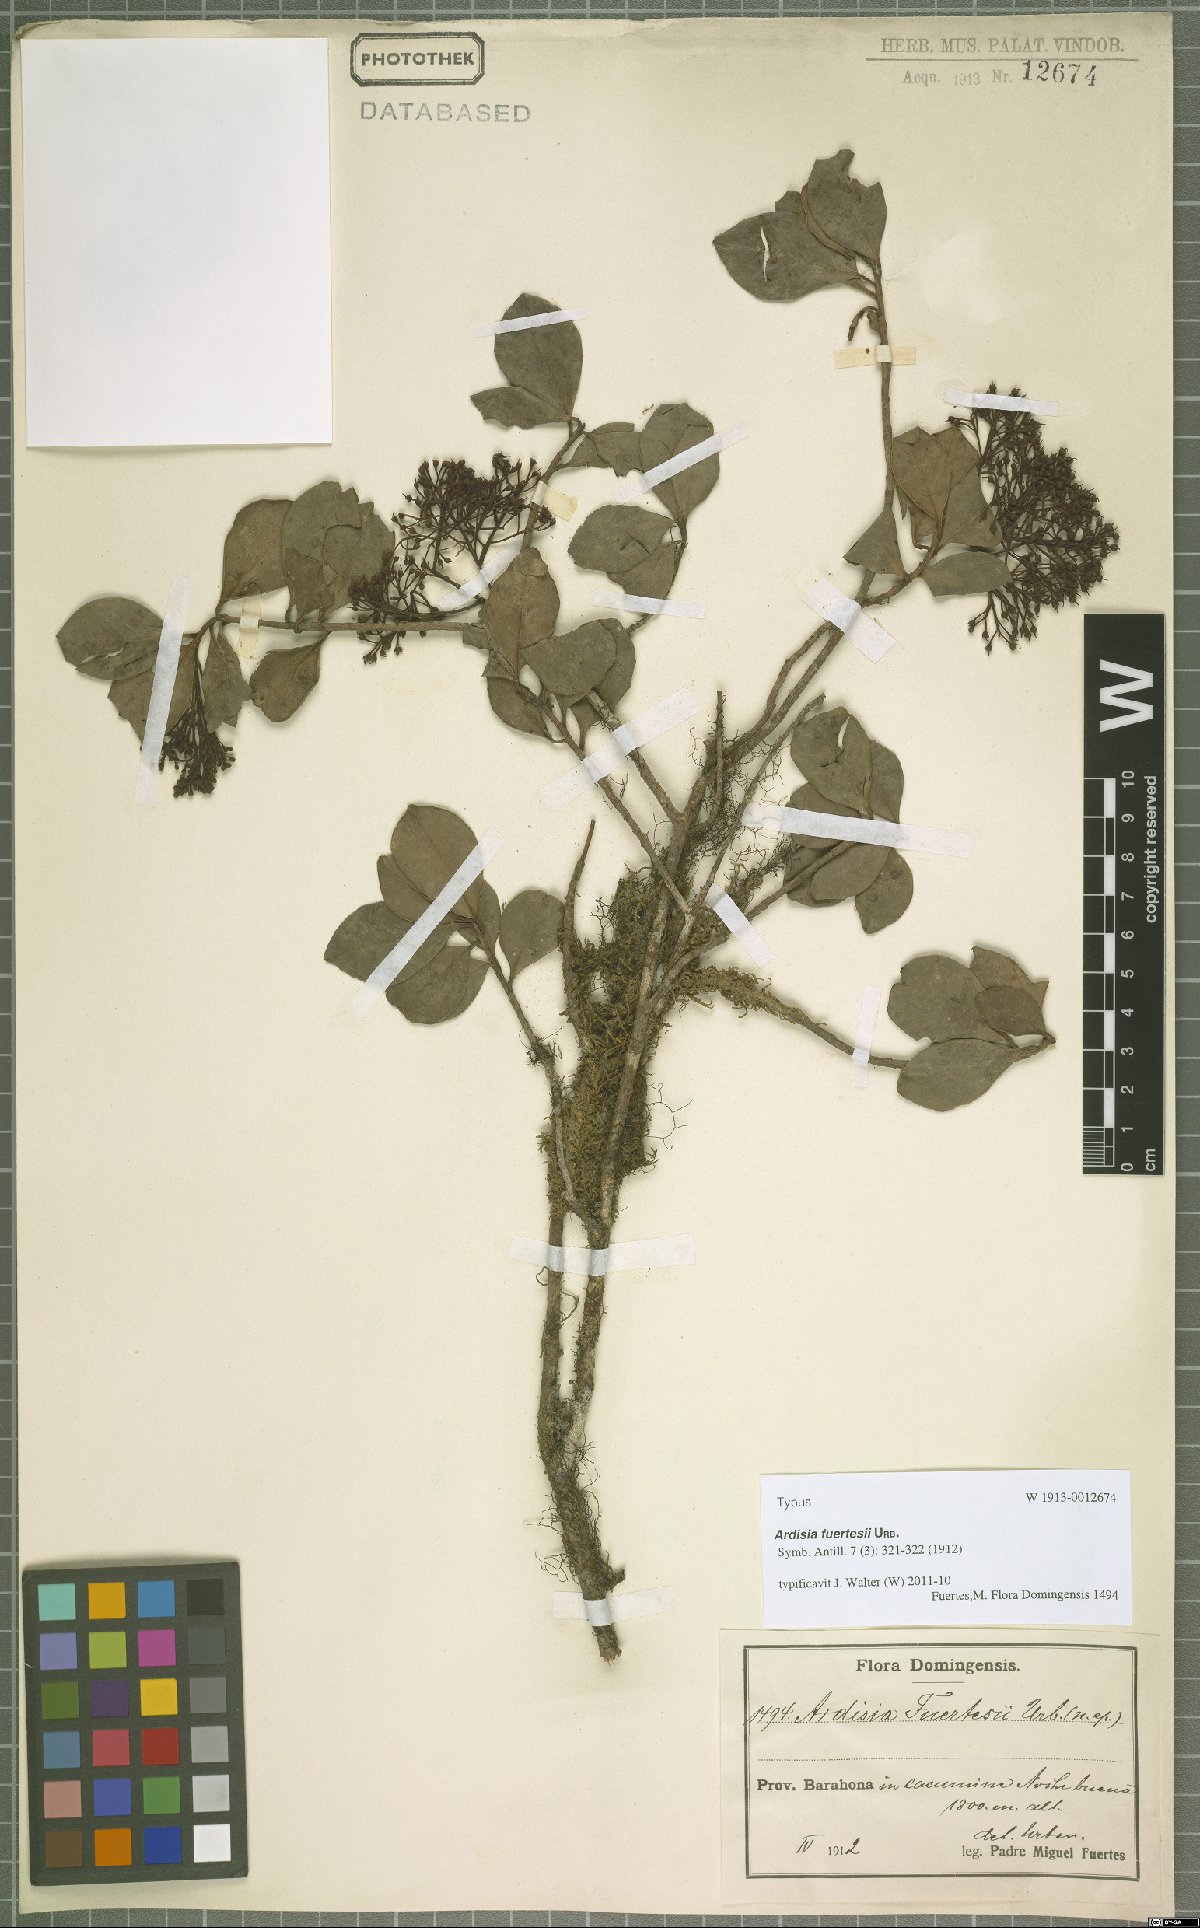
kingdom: Plantae
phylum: Tracheophyta
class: Magnoliopsida
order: Ericales
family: Primulaceae
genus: Ardisia
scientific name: Ardisia fuertesii
